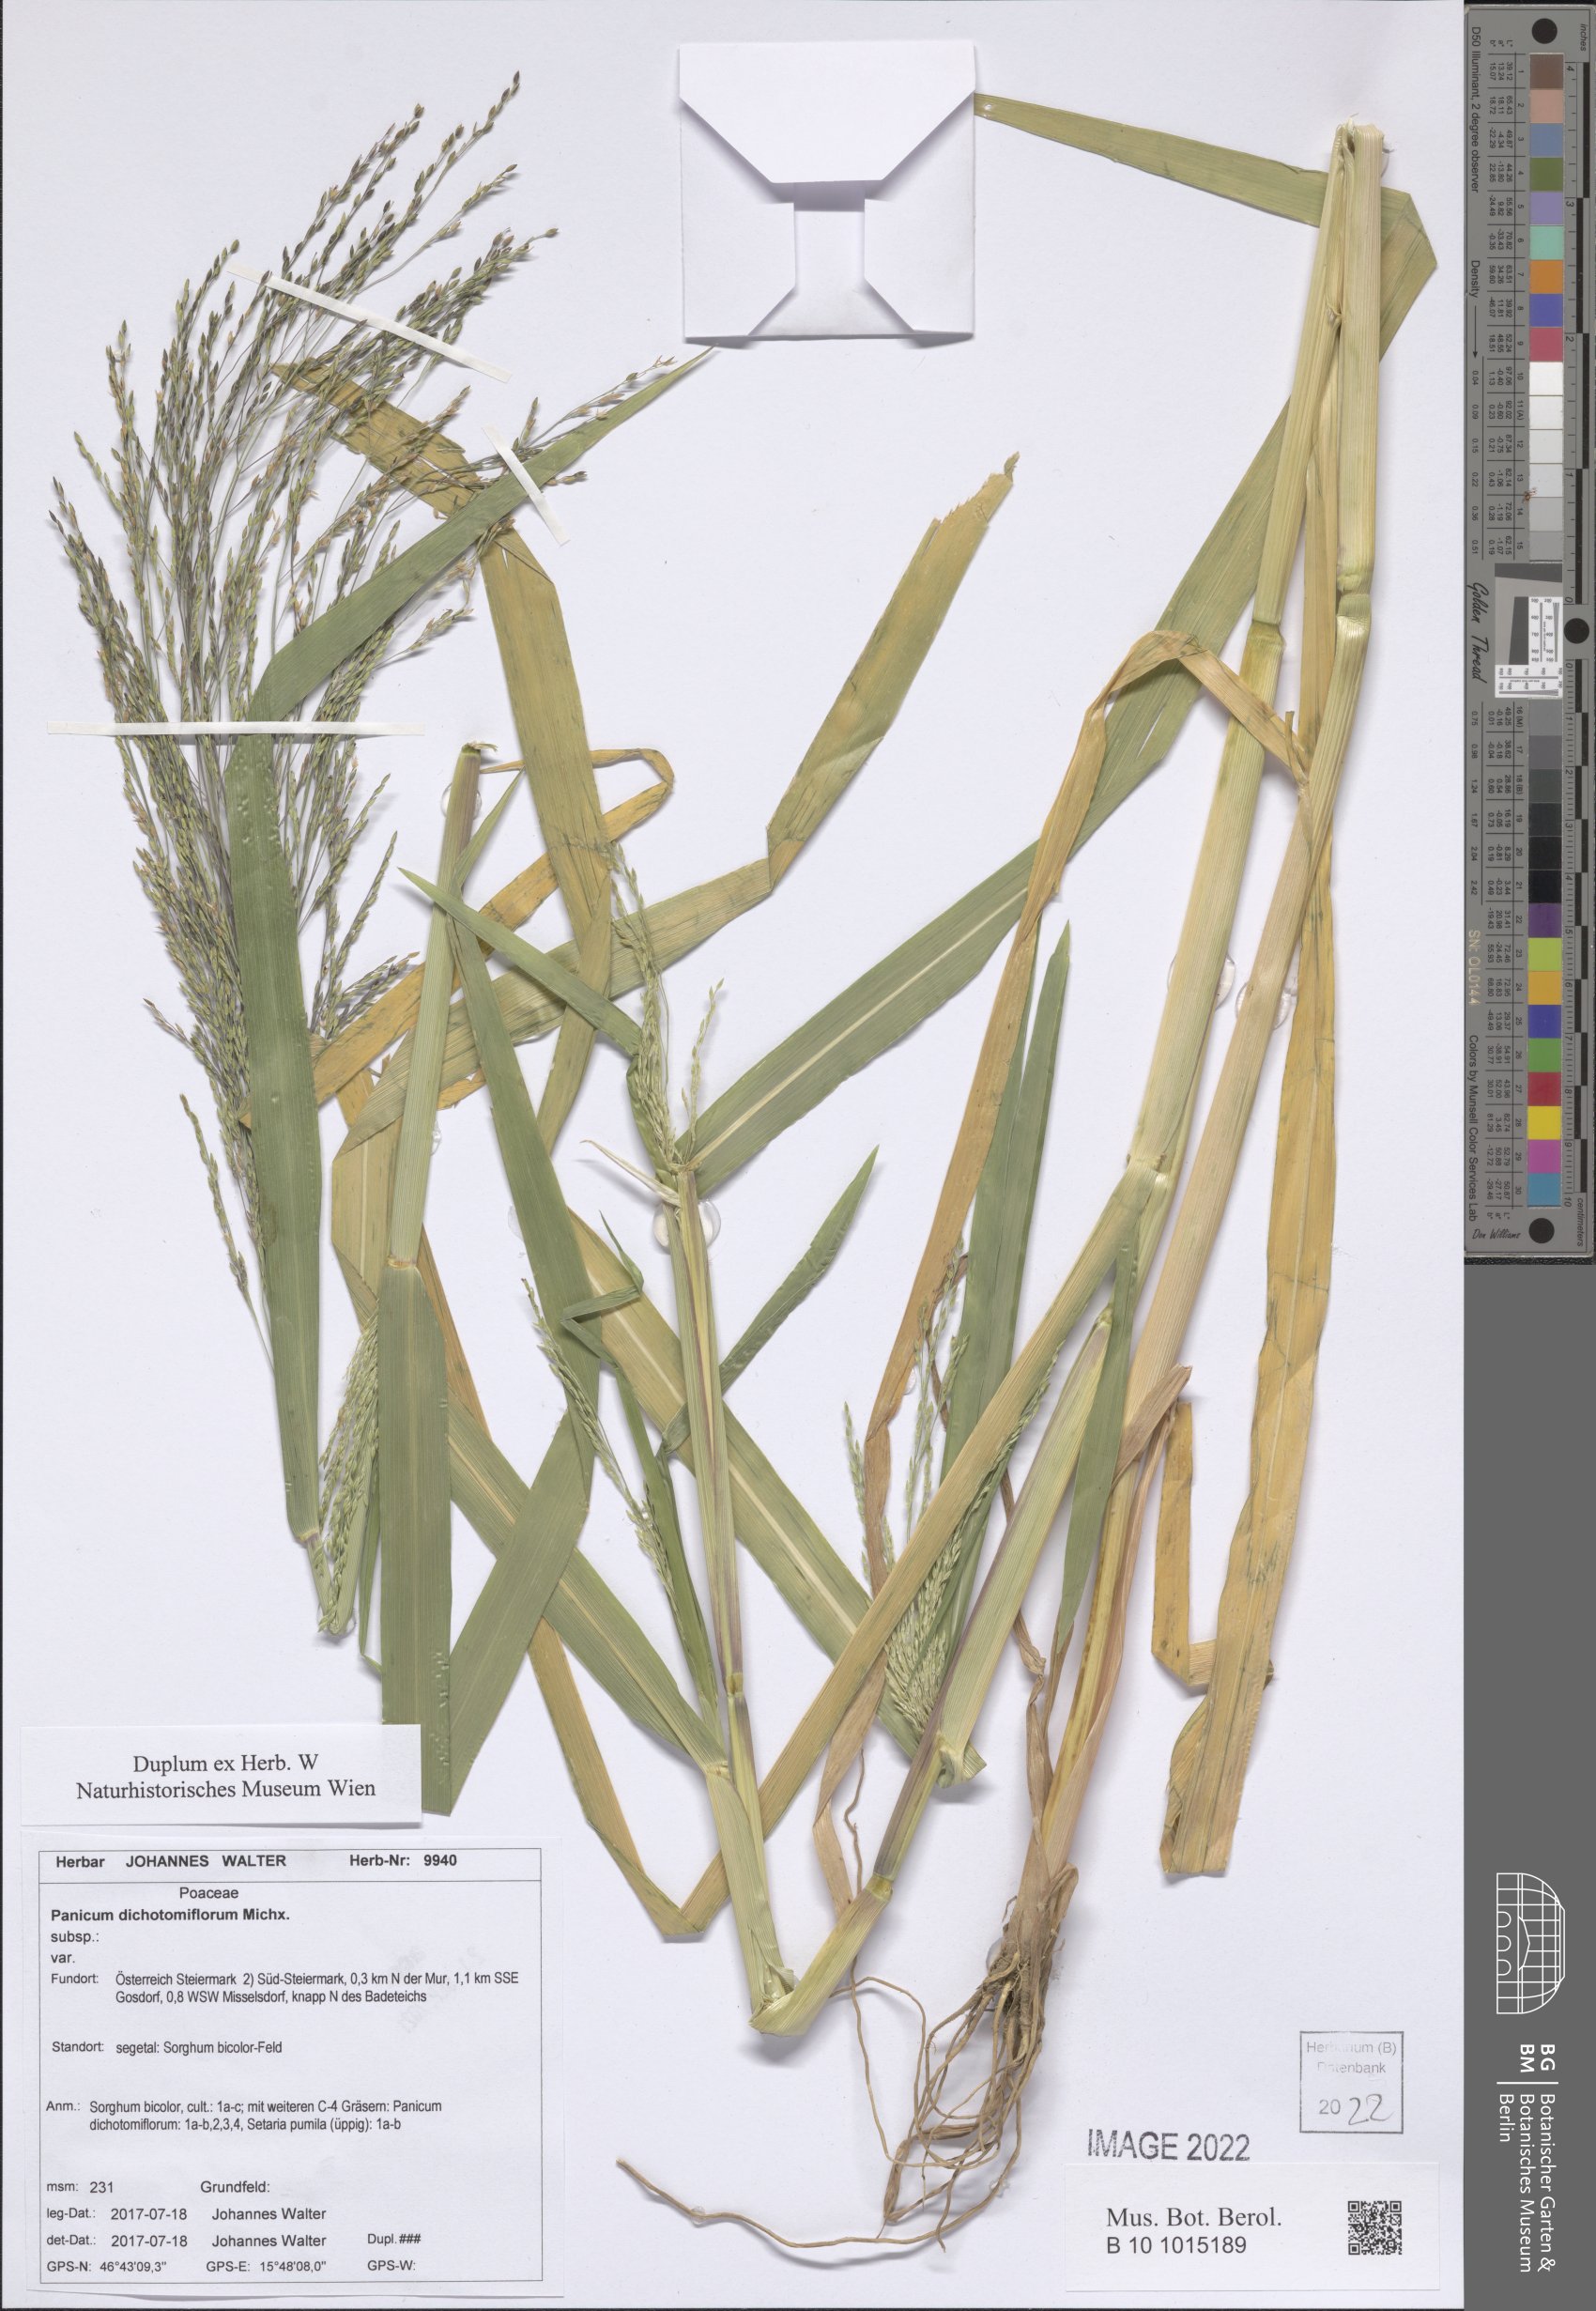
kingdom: Plantae
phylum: Tracheophyta
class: Liliopsida
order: Poales
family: Poaceae
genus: Panicum
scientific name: Panicum dichotomiflorum
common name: Autumn millet
